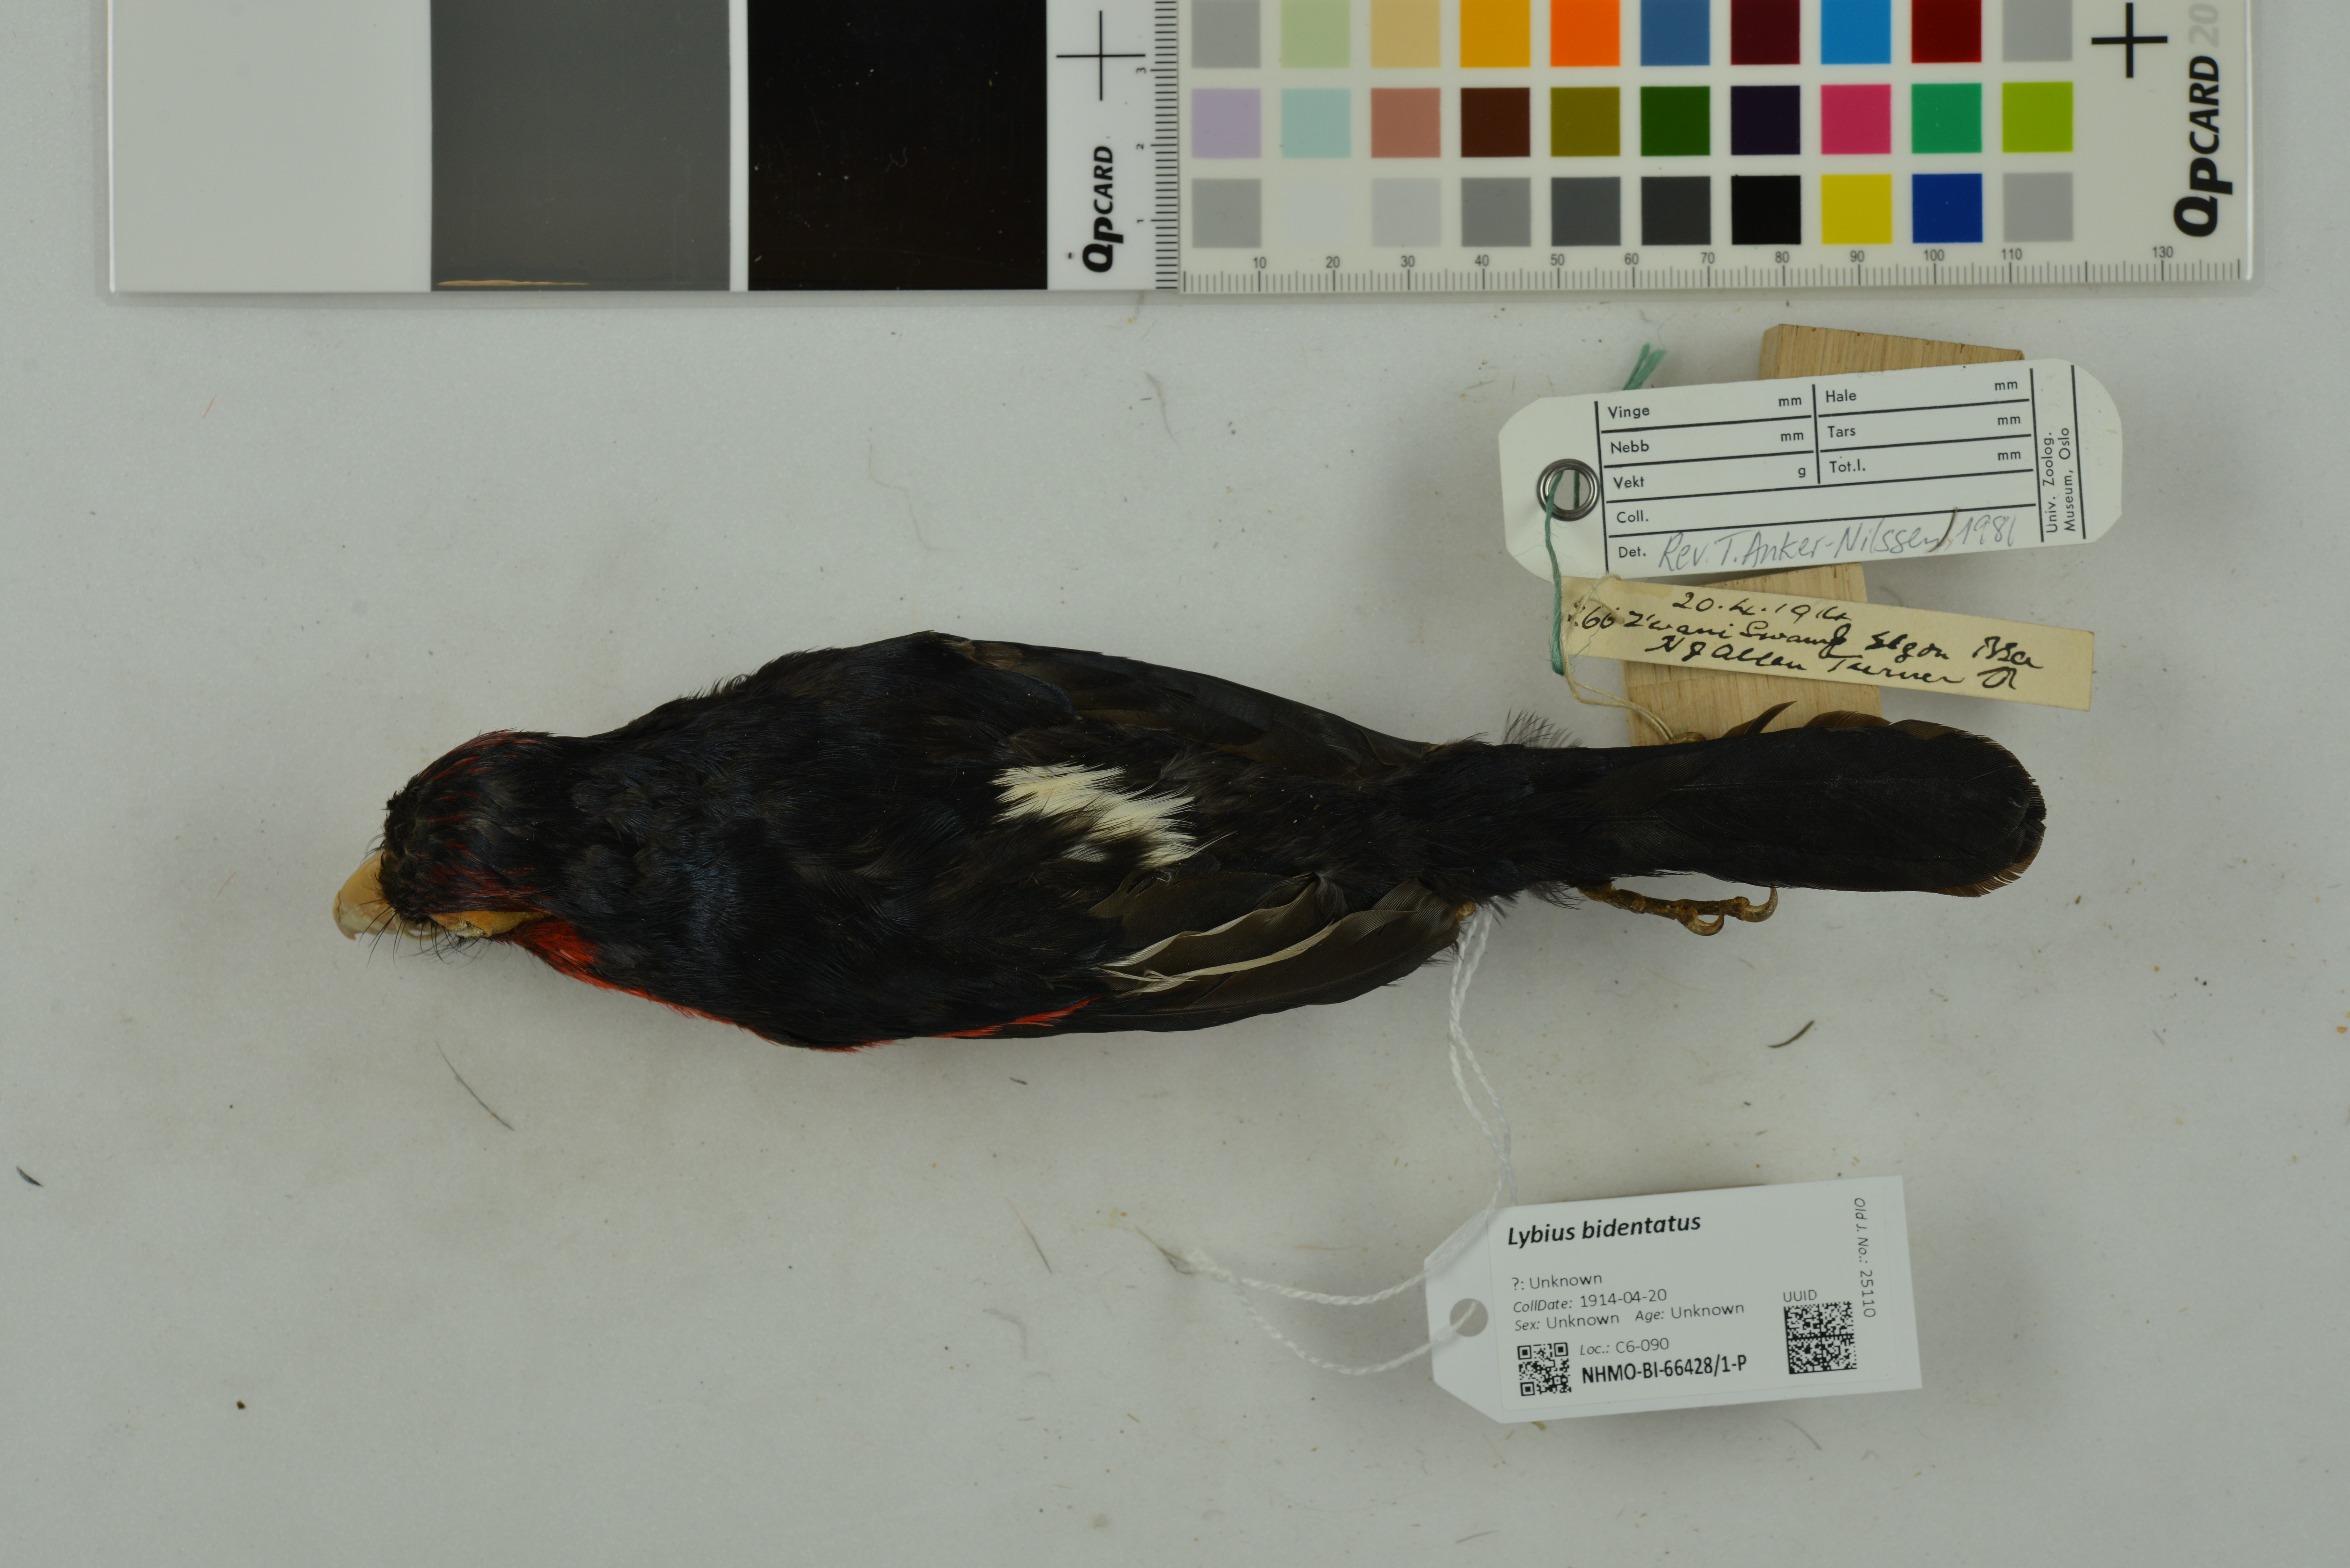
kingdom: Animalia
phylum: Chordata
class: Aves
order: Piciformes
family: Lybiidae
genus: Lybius
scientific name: Lybius bidentatus
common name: Double-toothed barbet
